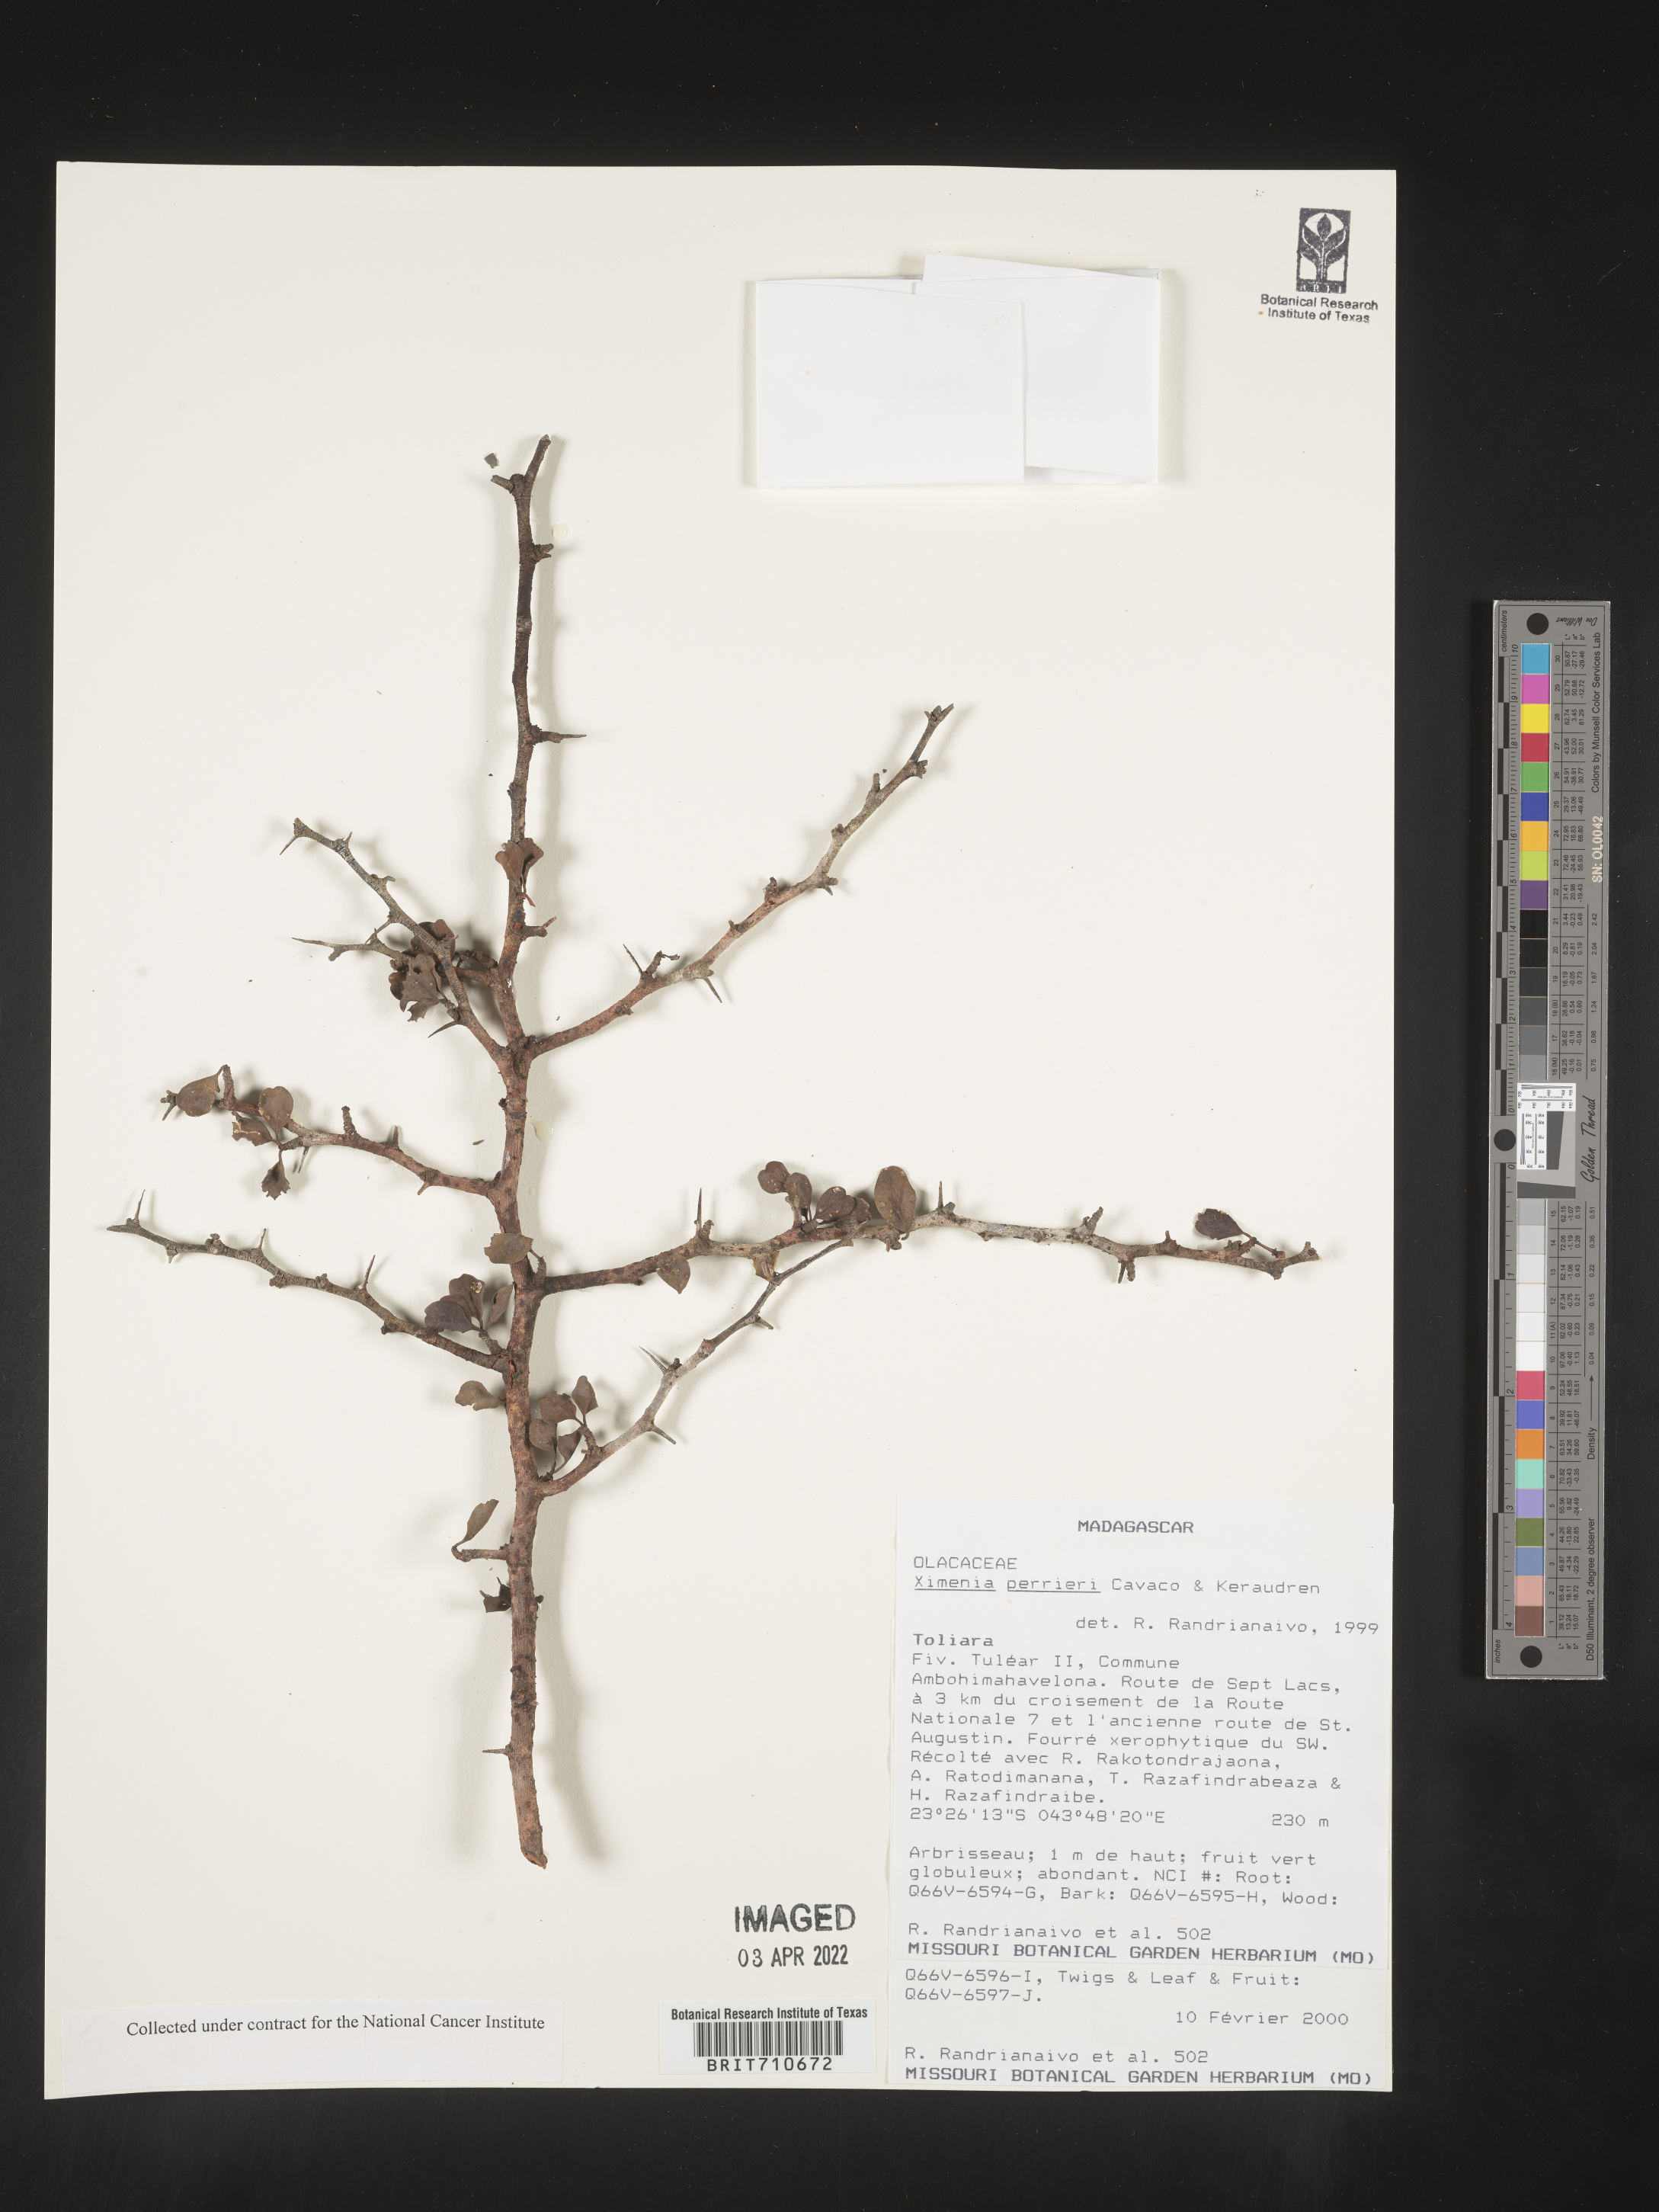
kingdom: Plantae
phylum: Tracheophyta
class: Magnoliopsida
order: Santalales
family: Ximeniaceae
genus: Ximenia
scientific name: Ximenia
